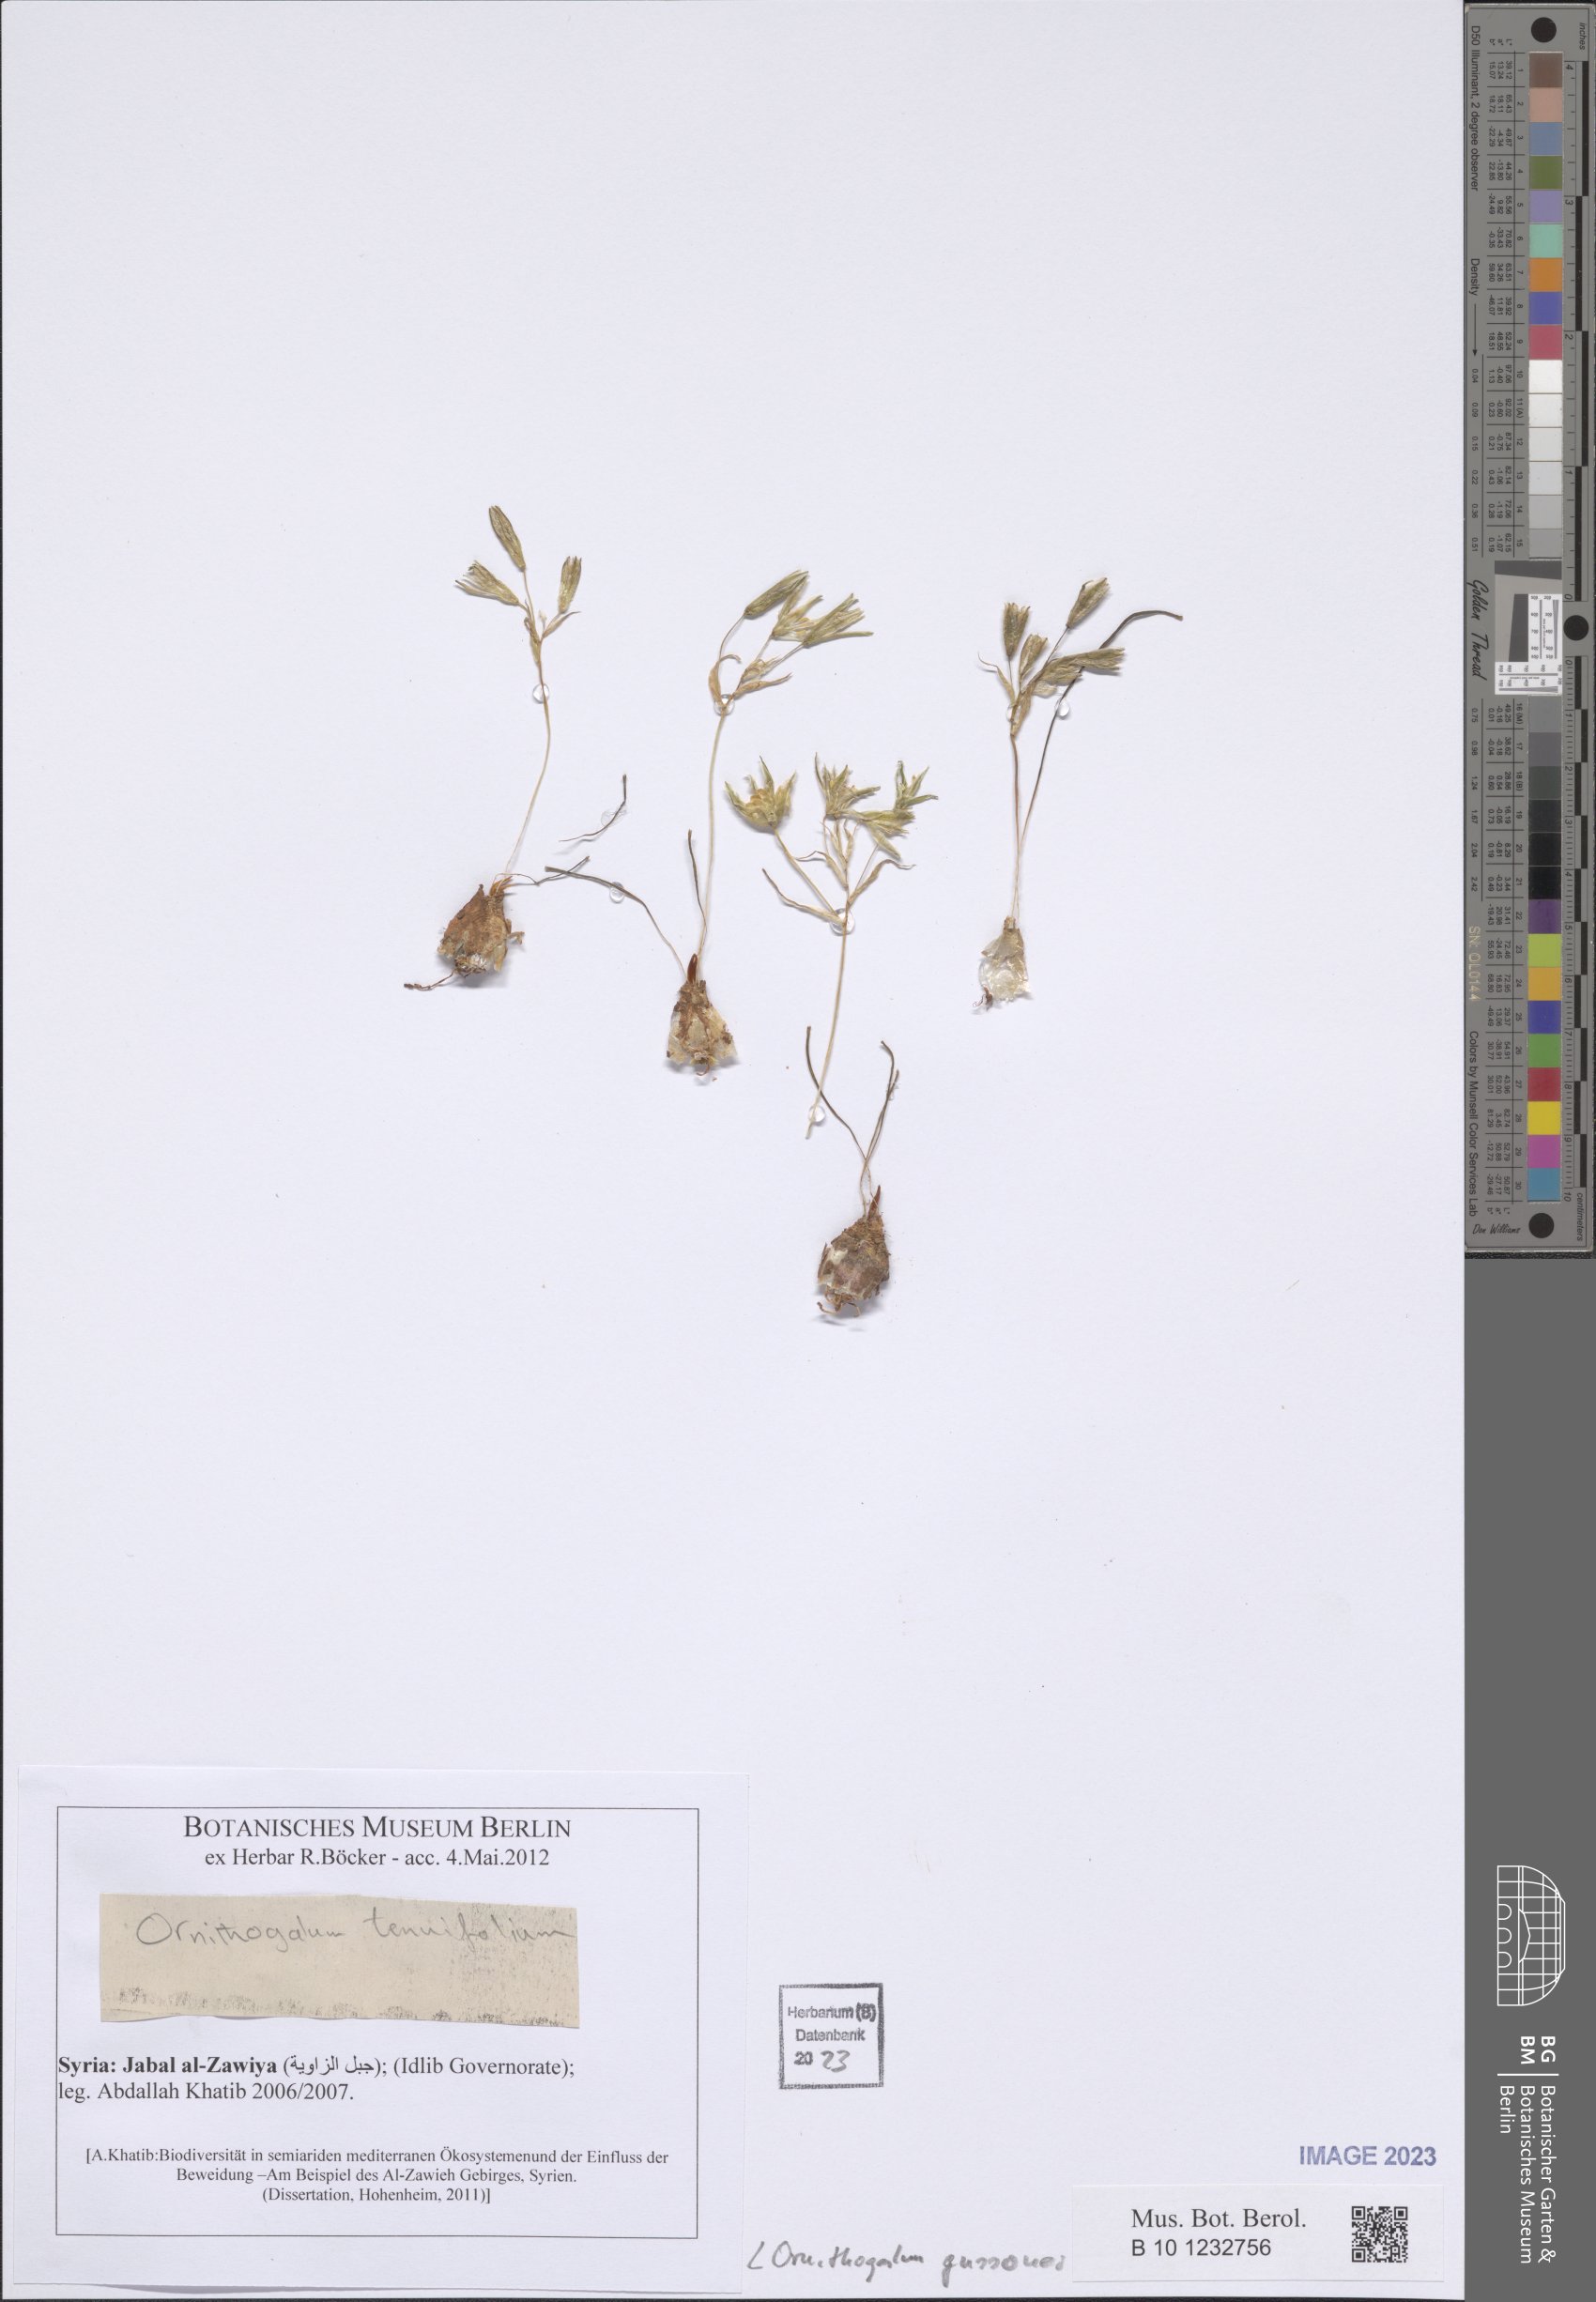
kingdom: Plantae
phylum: Tracheophyta
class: Liliopsida
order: Asparagales
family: Asparagaceae
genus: Ornithogalum
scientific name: Ornithogalum gussonei
